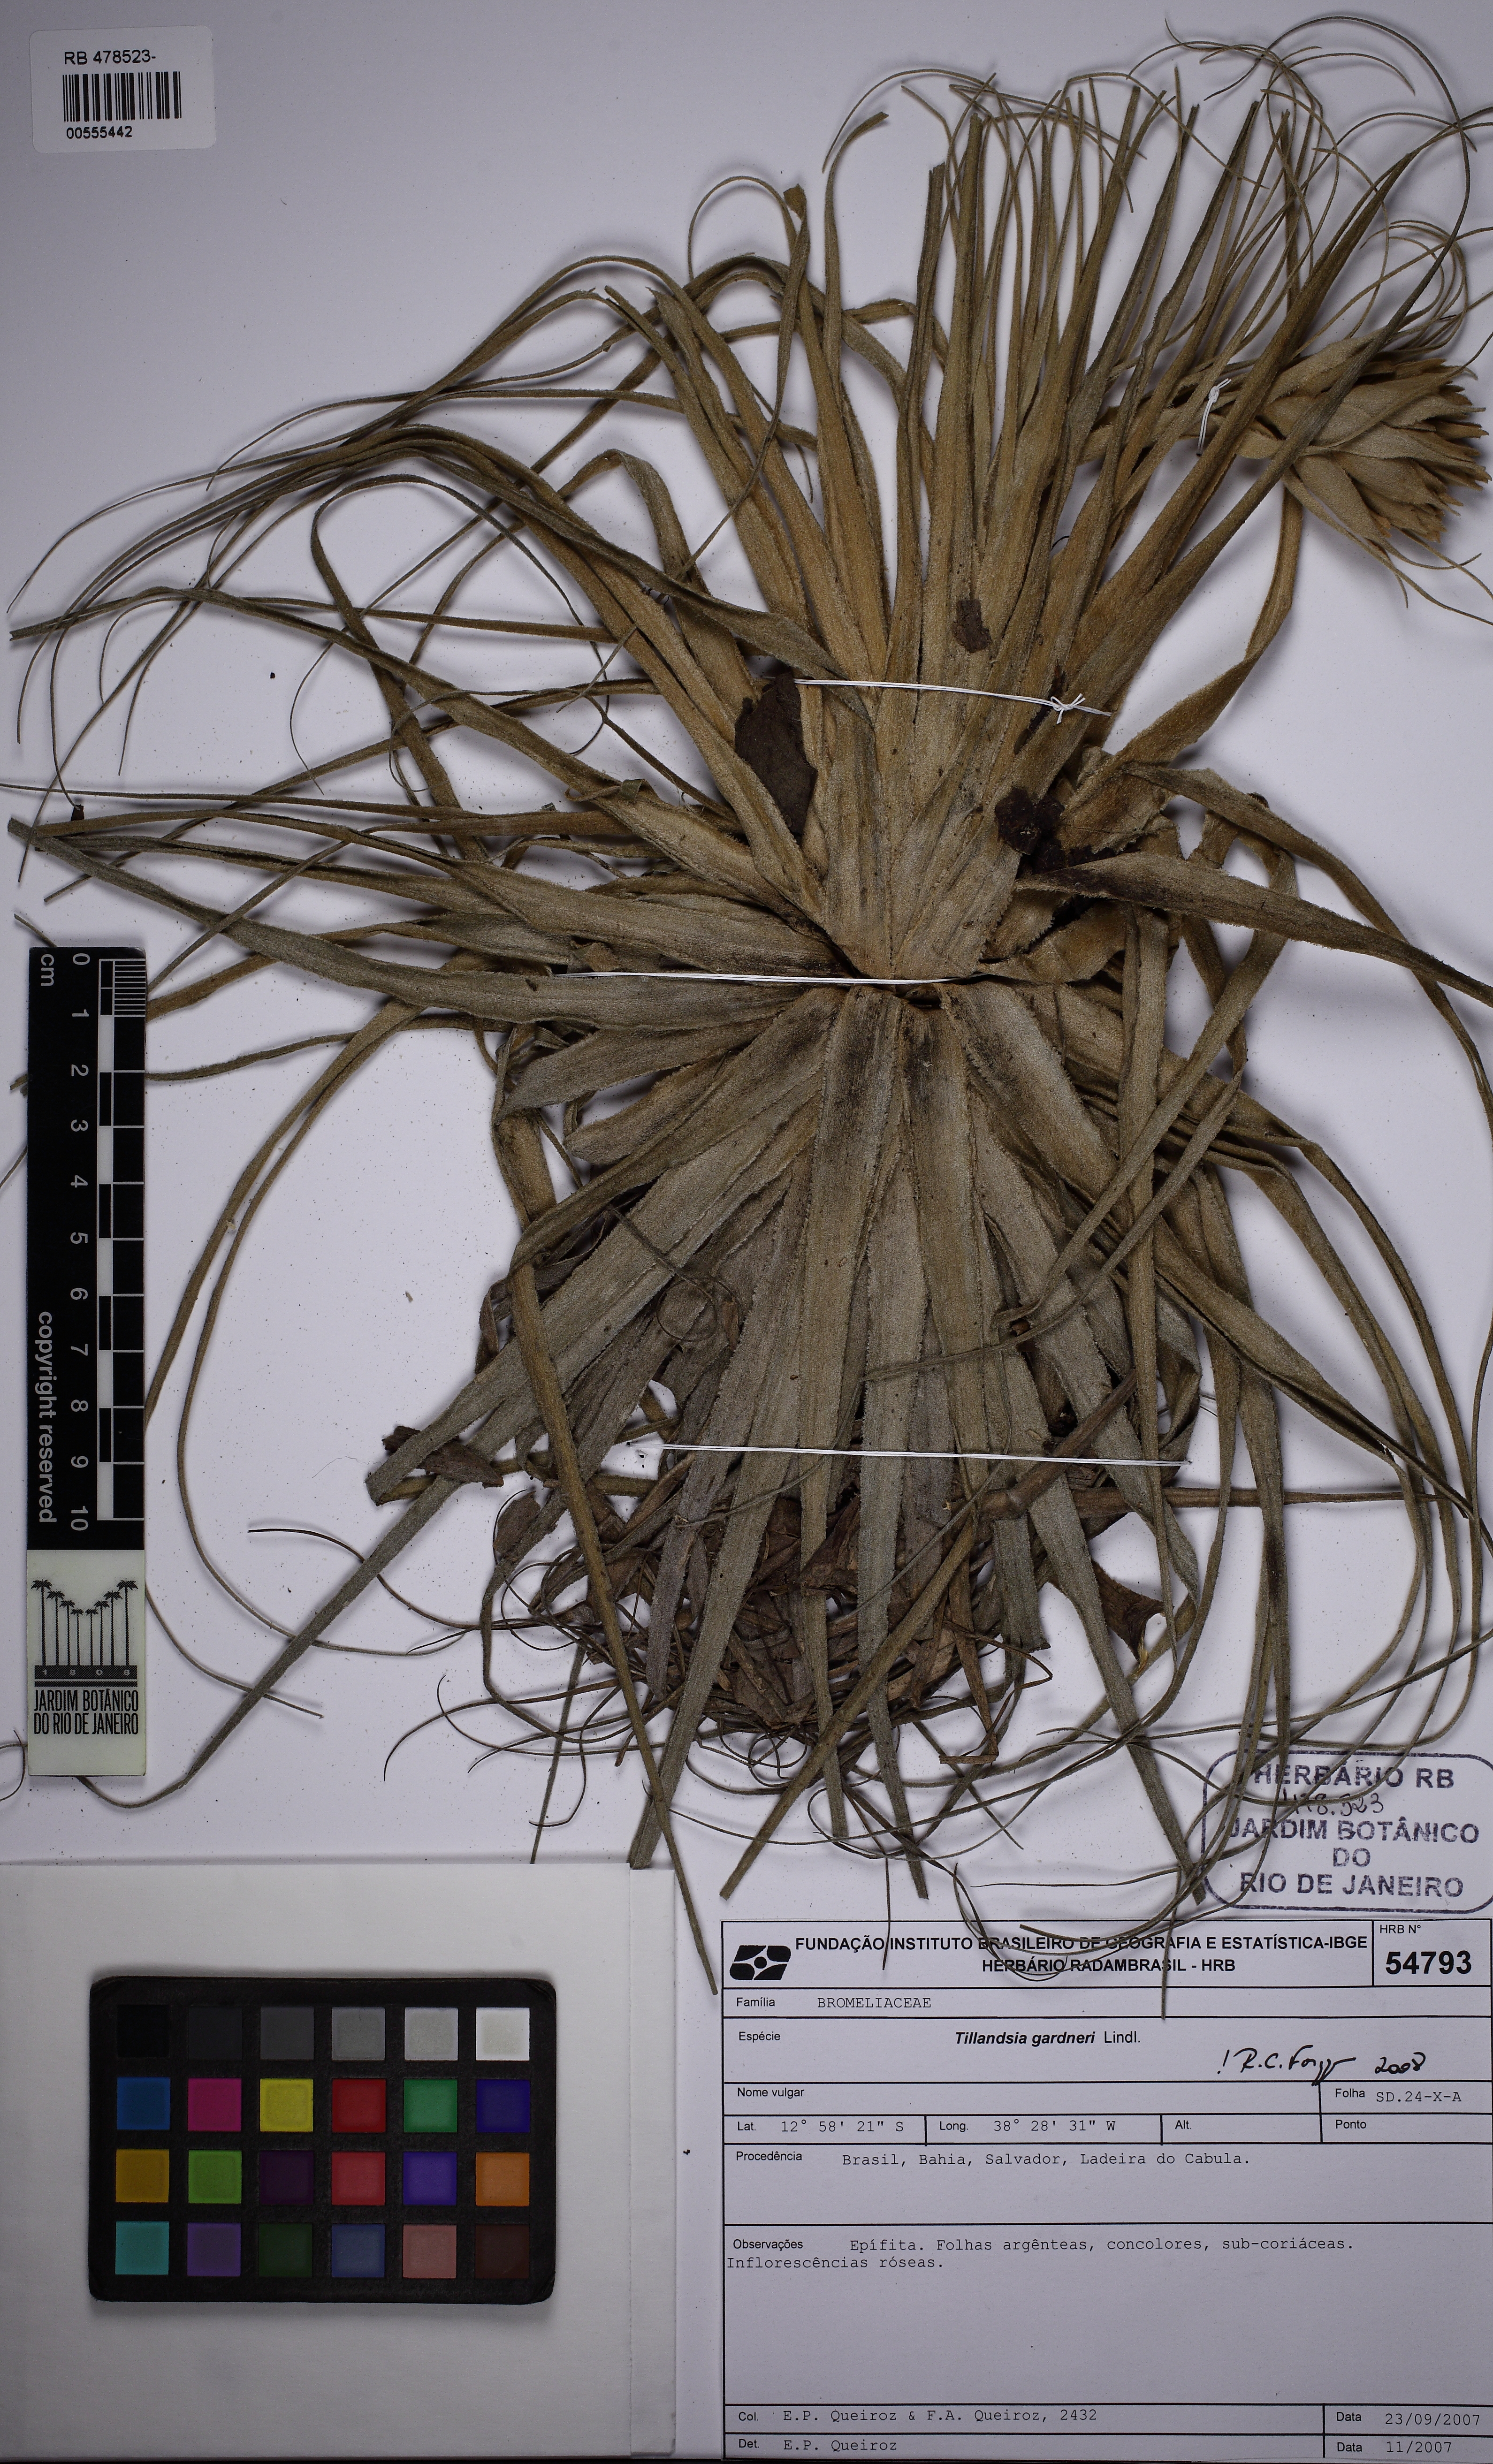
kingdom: Plantae
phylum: Tracheophyta
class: Liliopsida
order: Poales
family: Bromeliaceae
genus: Tillandsia
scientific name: Tillandsia gardneri
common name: Airplant
